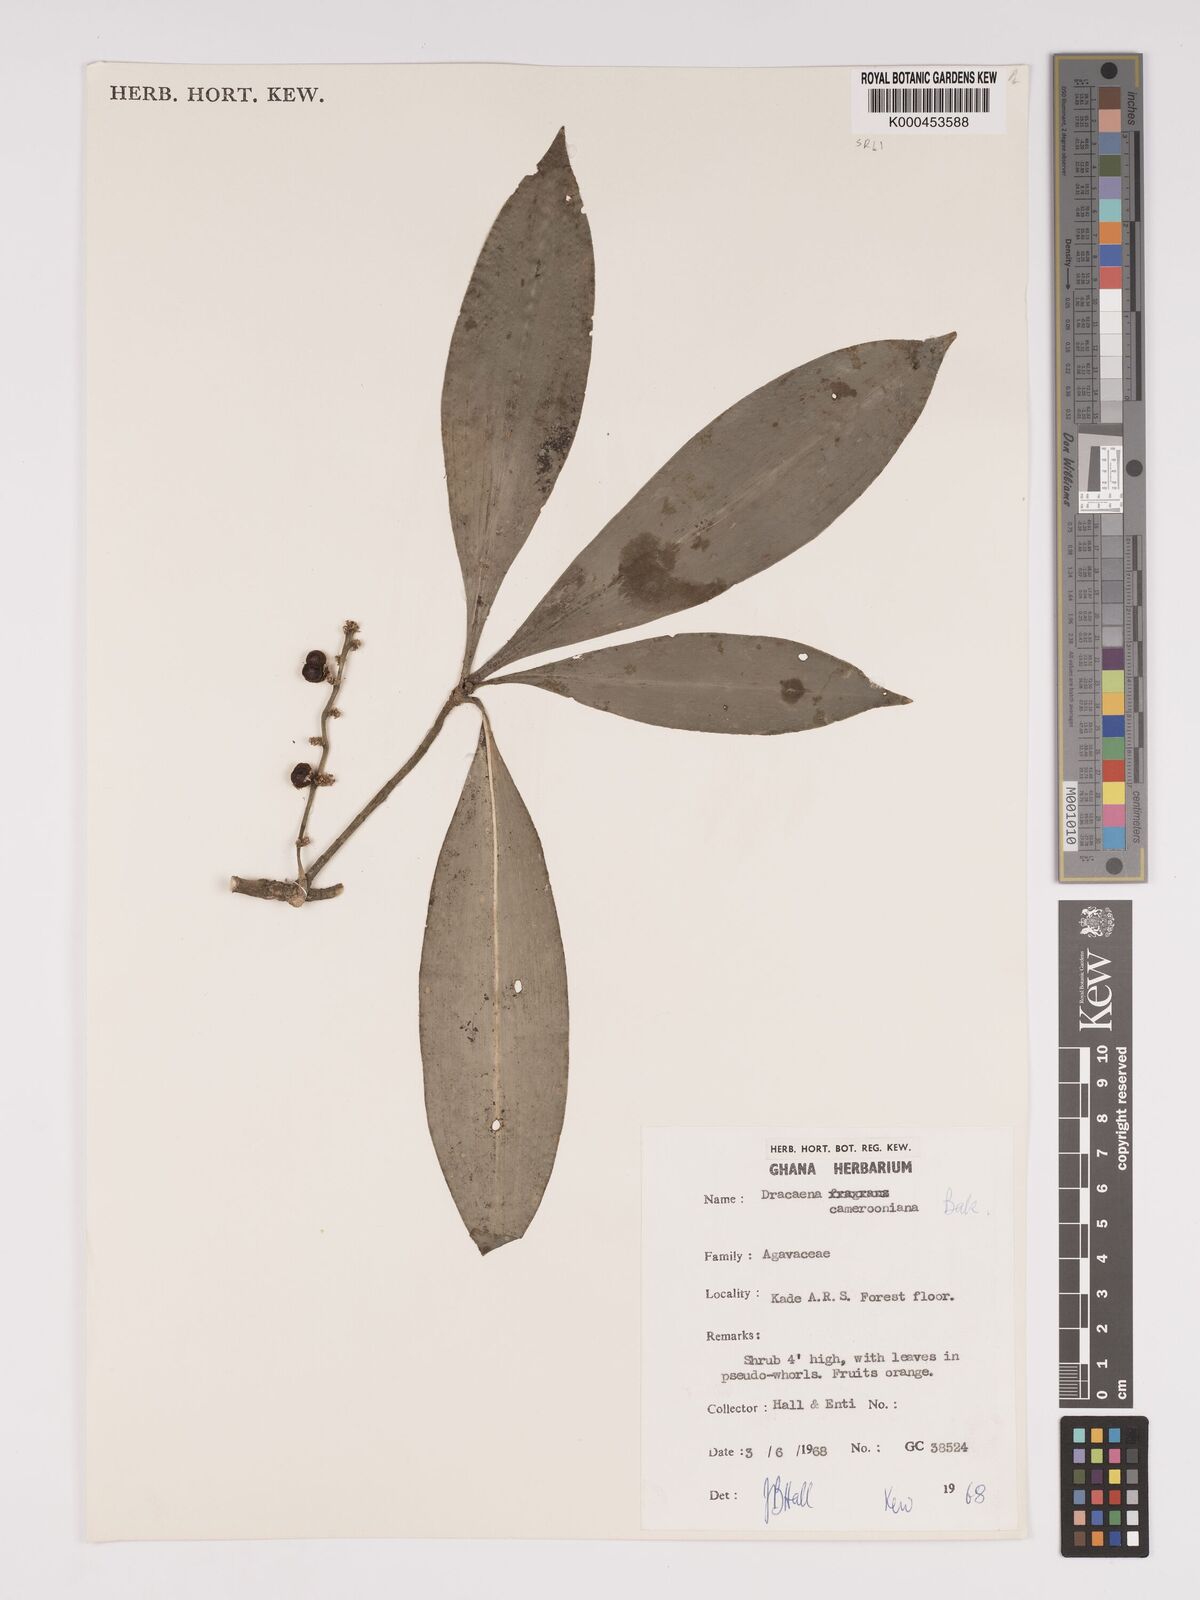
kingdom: Plantae
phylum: Tracheophyta
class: Liliopsida
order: Asparagales
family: Asparagaceae
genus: Dracaena
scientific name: Dracaena camerooniana
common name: Dragon tree
